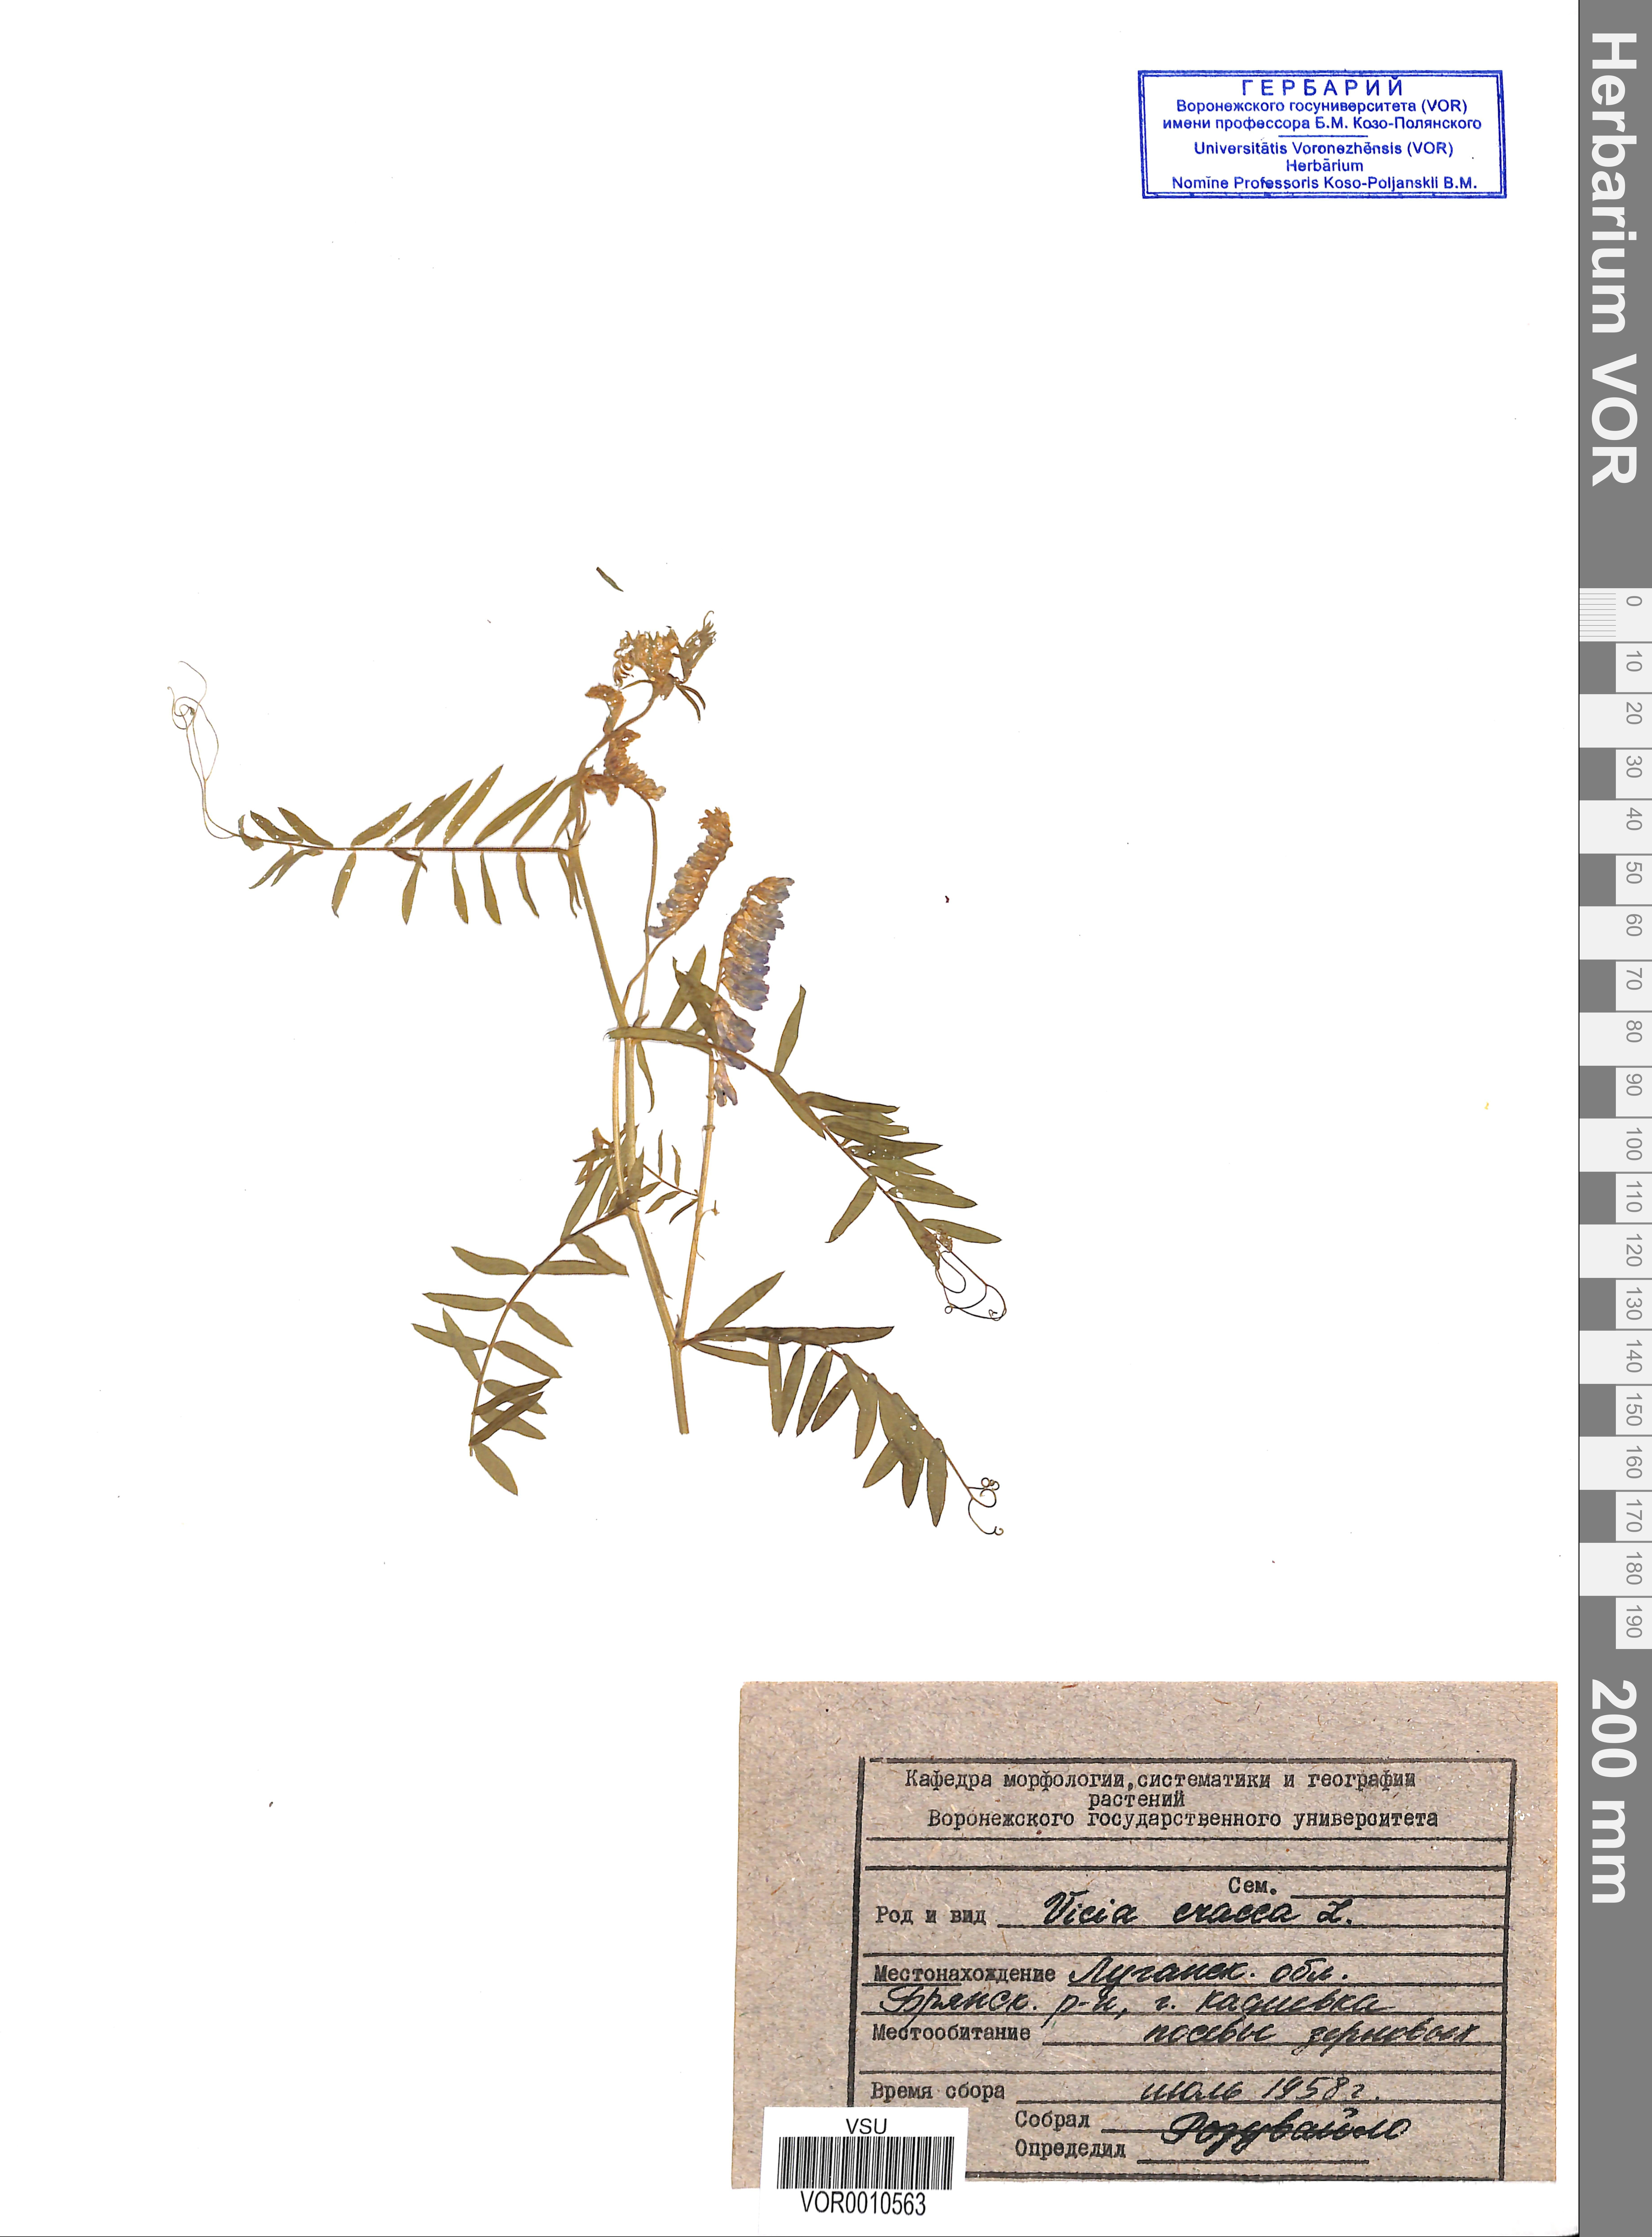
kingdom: Plantae
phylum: Tracheophyta
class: Magnoliopsida
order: Fabales
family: Fabaceae
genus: Vicia
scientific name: Vicia cracca
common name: Bird vetch
